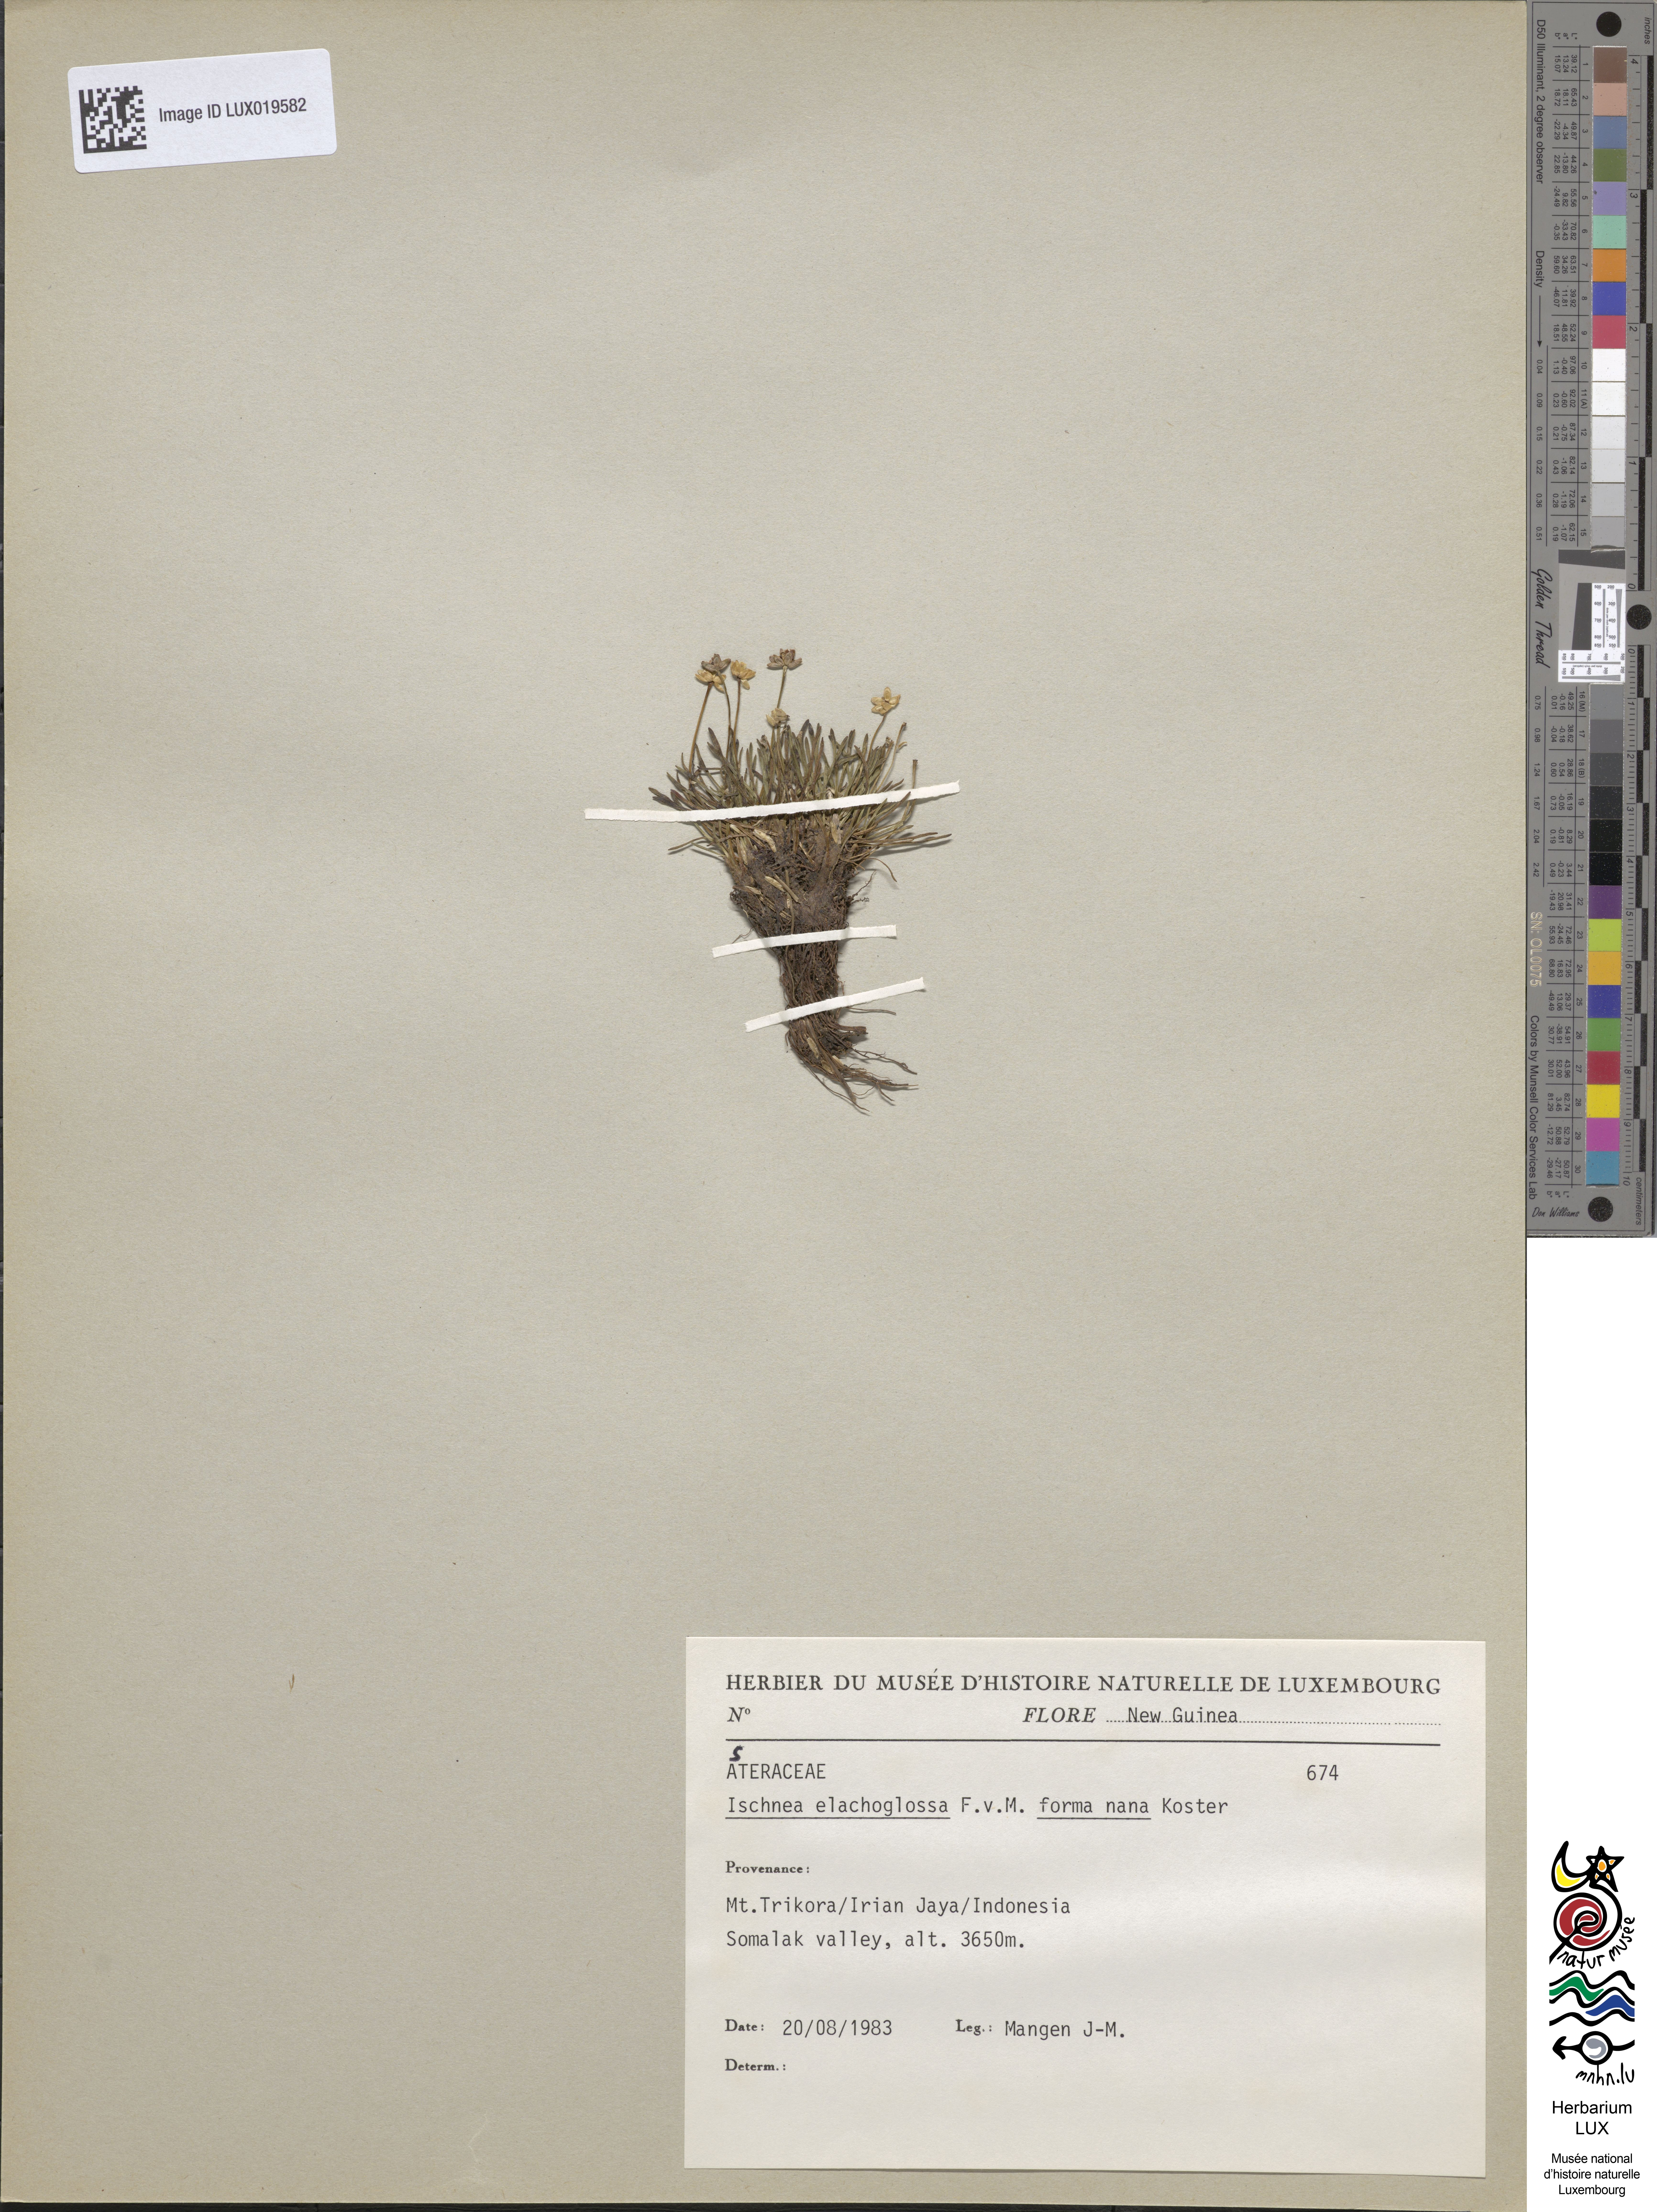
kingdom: Plantae
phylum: Tracheophyta
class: Magnoliopsida
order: Asterales
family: Asteraceae
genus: Ischnea
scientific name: Ischnea elachoglossa
